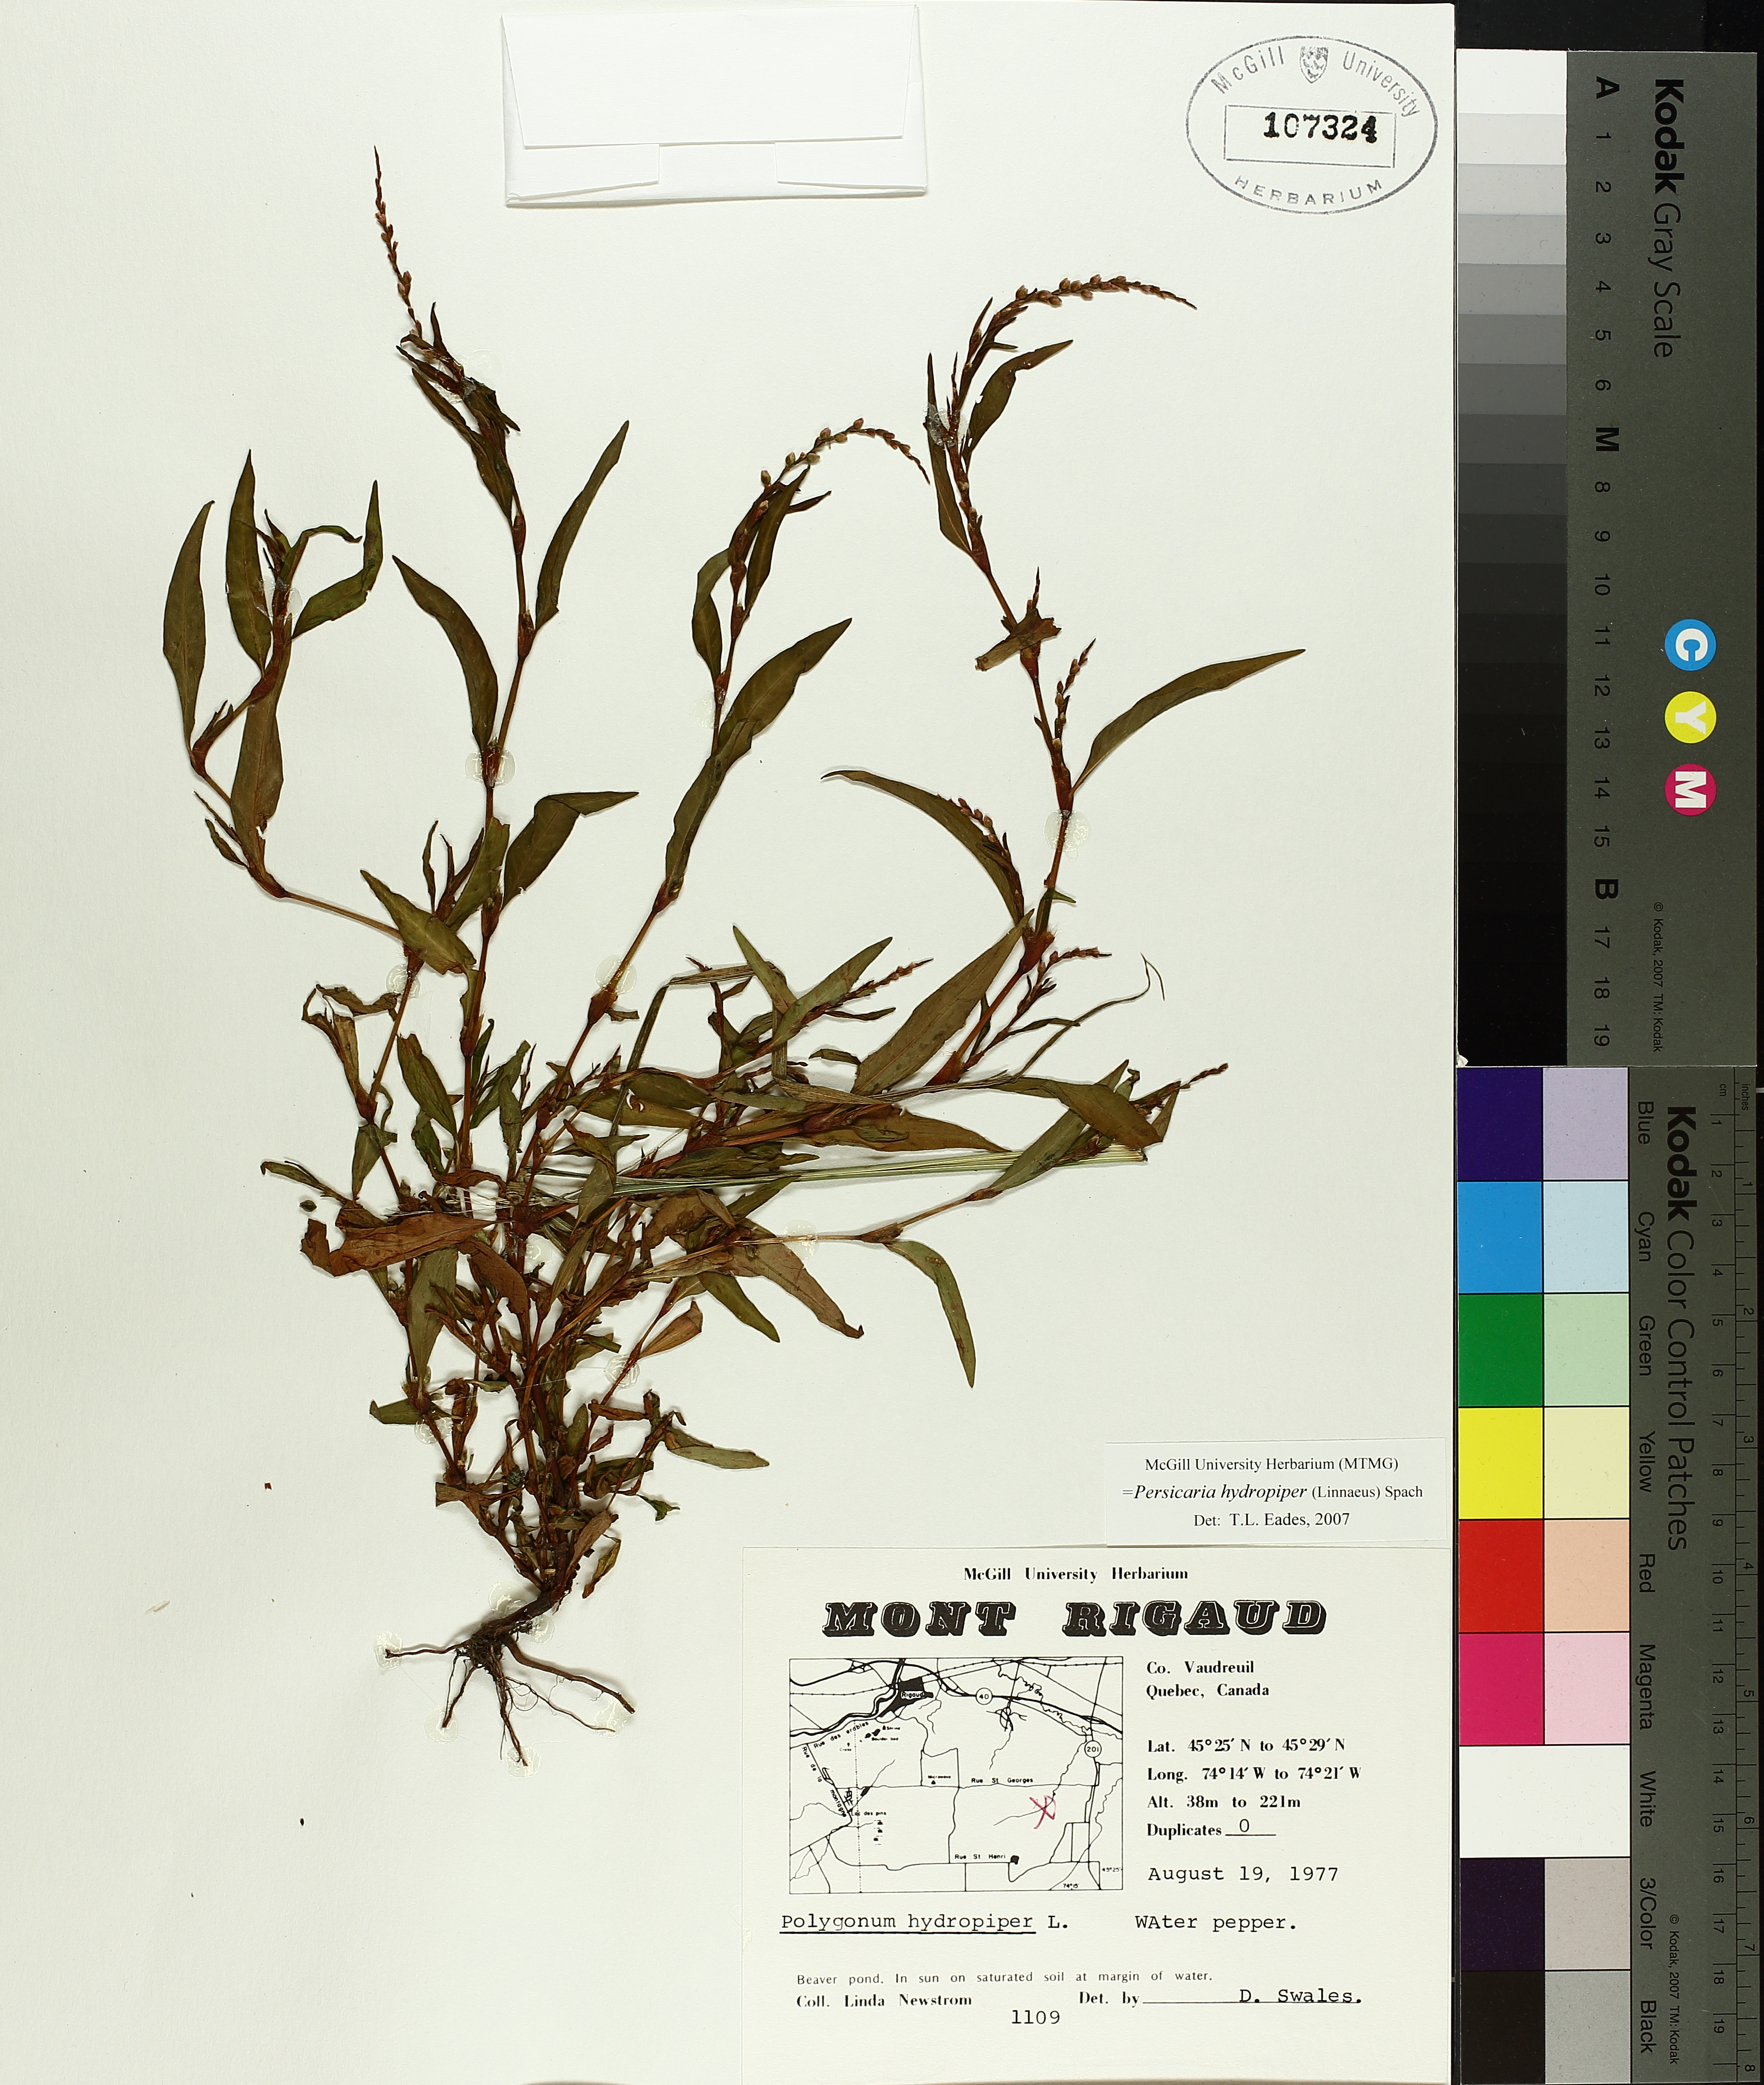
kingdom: Plantae
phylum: Tracheophyta
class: Magnoliopsida
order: Caryophyllales
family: Polygonaceae
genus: Persicaria
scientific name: Persicaria hydropiper
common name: Water-pepper
